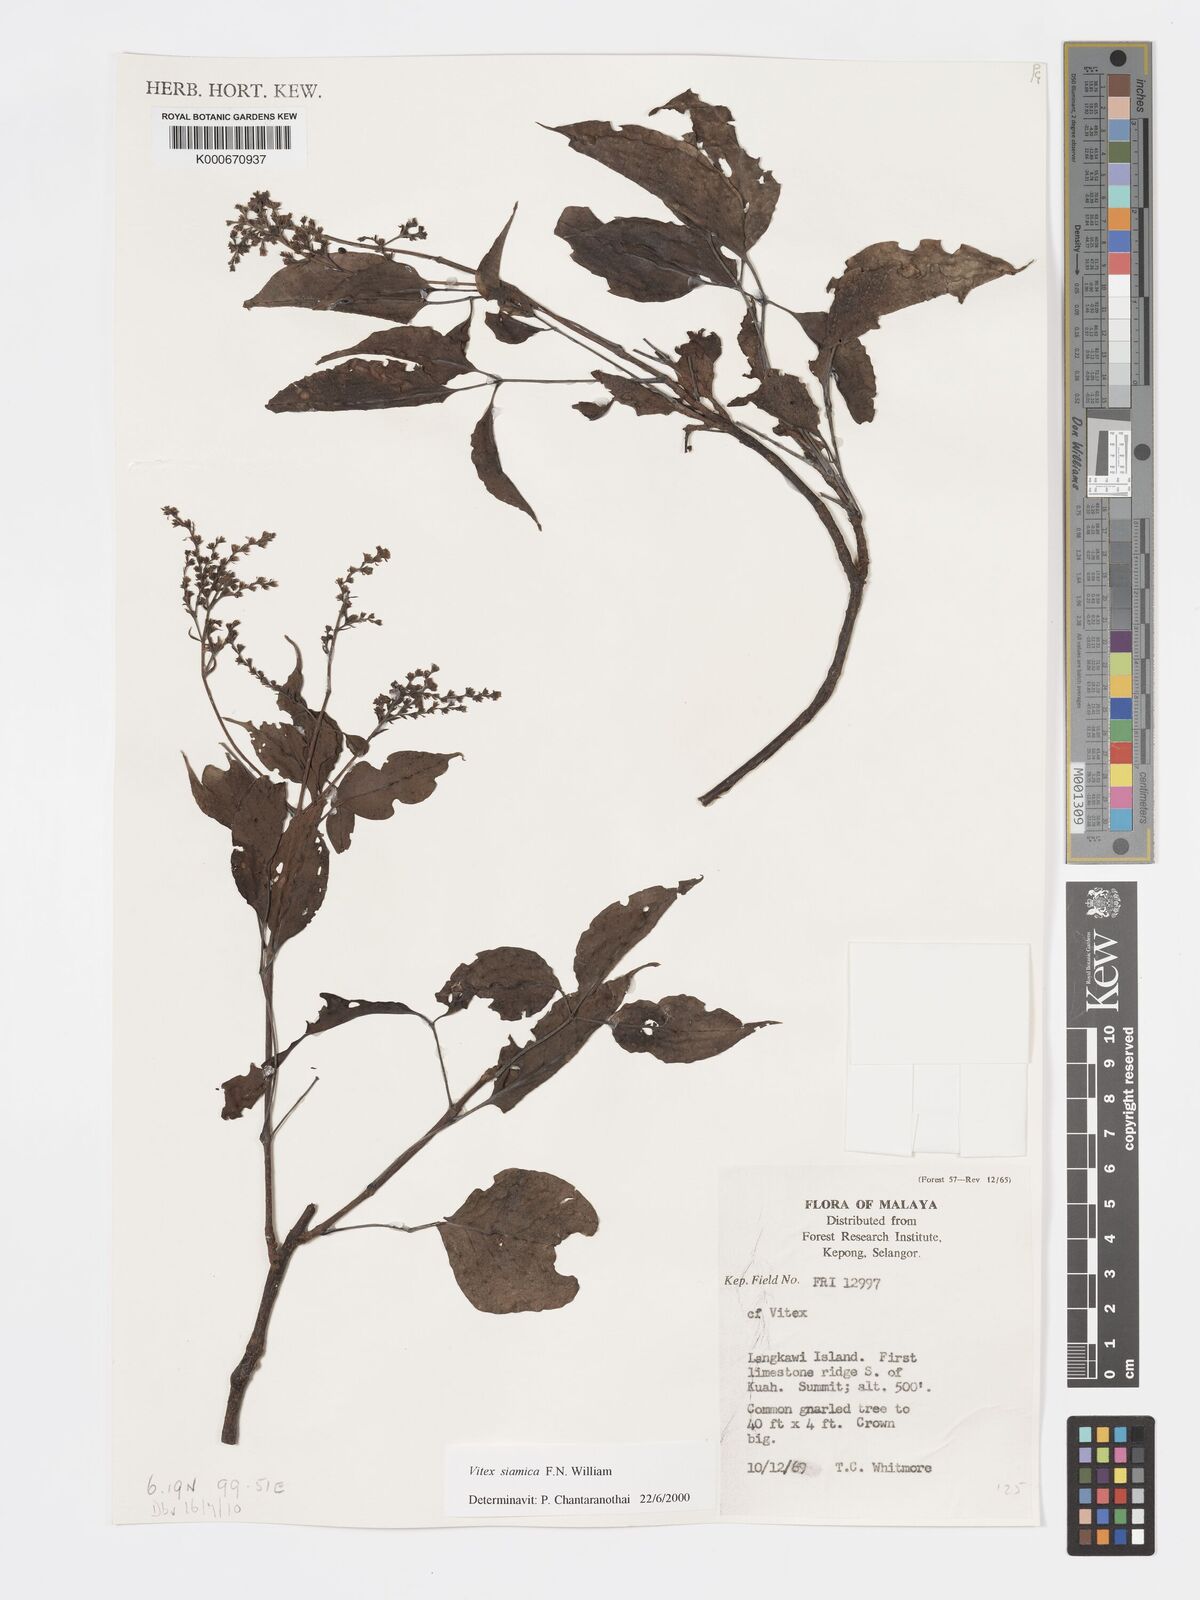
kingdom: Plantae
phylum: Tracheophyta
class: Magnoliopsida
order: Lamiales
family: Lamiaceae
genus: Vitex
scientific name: Vitex siamica
